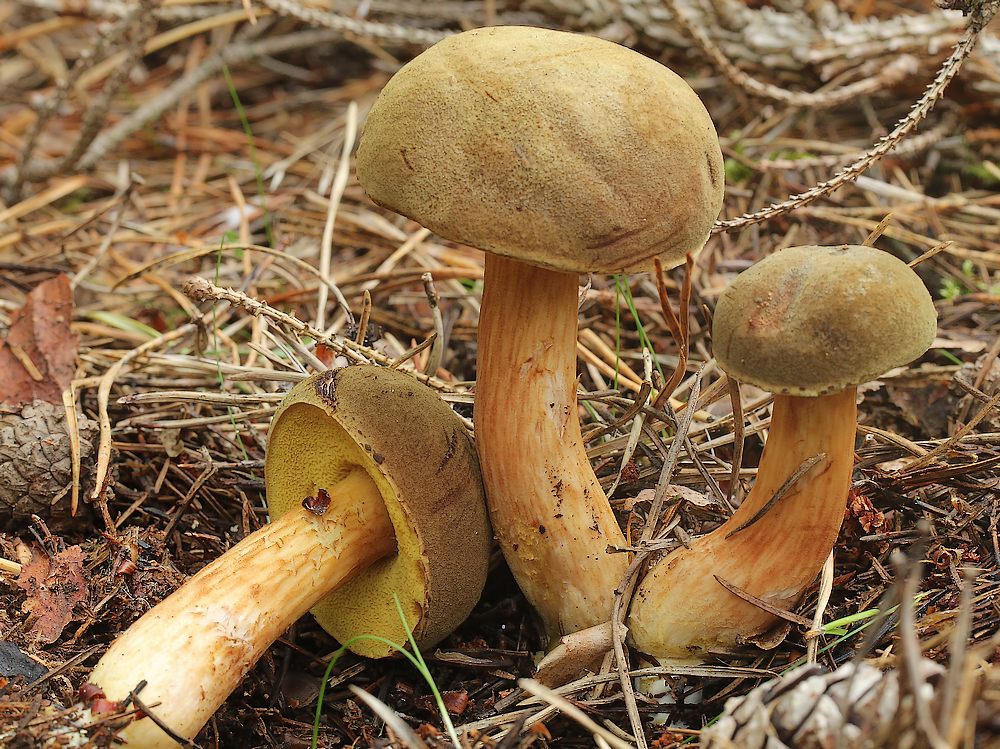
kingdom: Fungi
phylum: Basidiomycota
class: Agaricomycetes
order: Boletales
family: Boletaceae
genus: Xerocomus
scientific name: Xerocomus subtomentosus
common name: filtet rørhat
